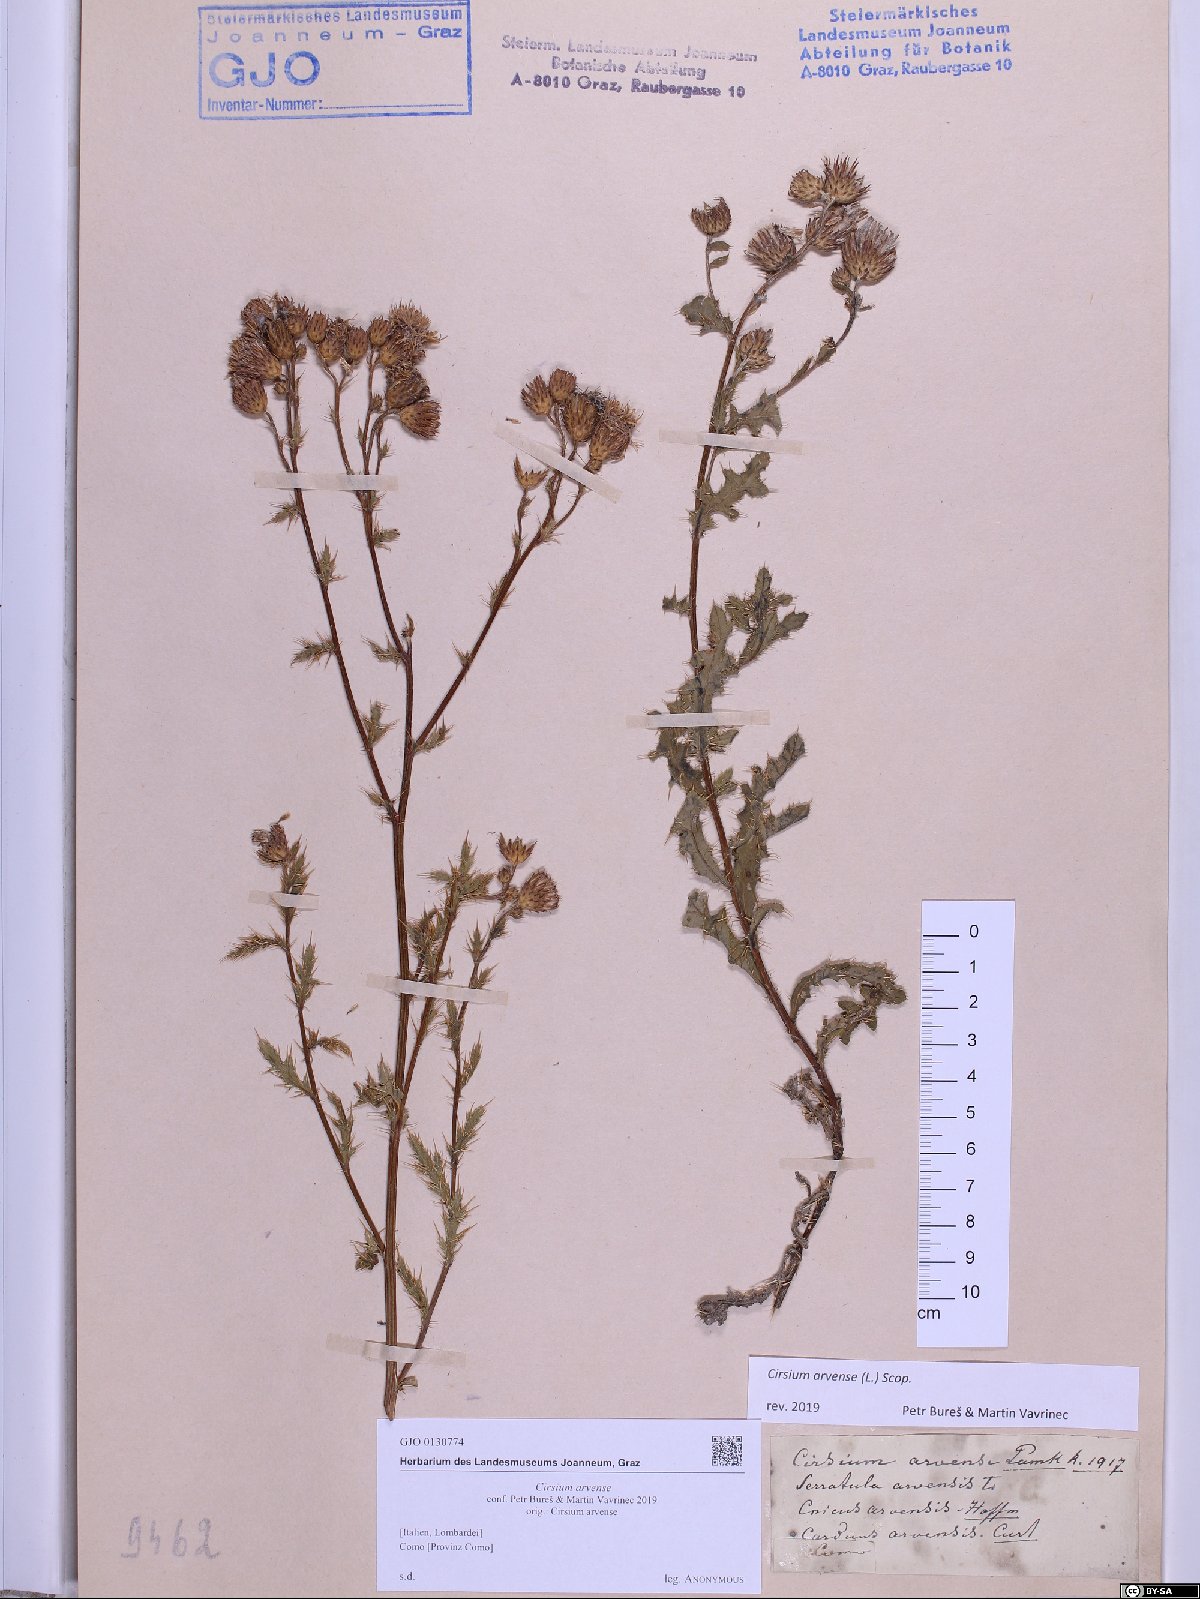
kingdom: Plantae
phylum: Tracheophyta
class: Magnoliopsida
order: Asterales
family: Asteraceae
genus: Cirsium
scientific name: Cirsium arvense
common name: Creeping thistle
